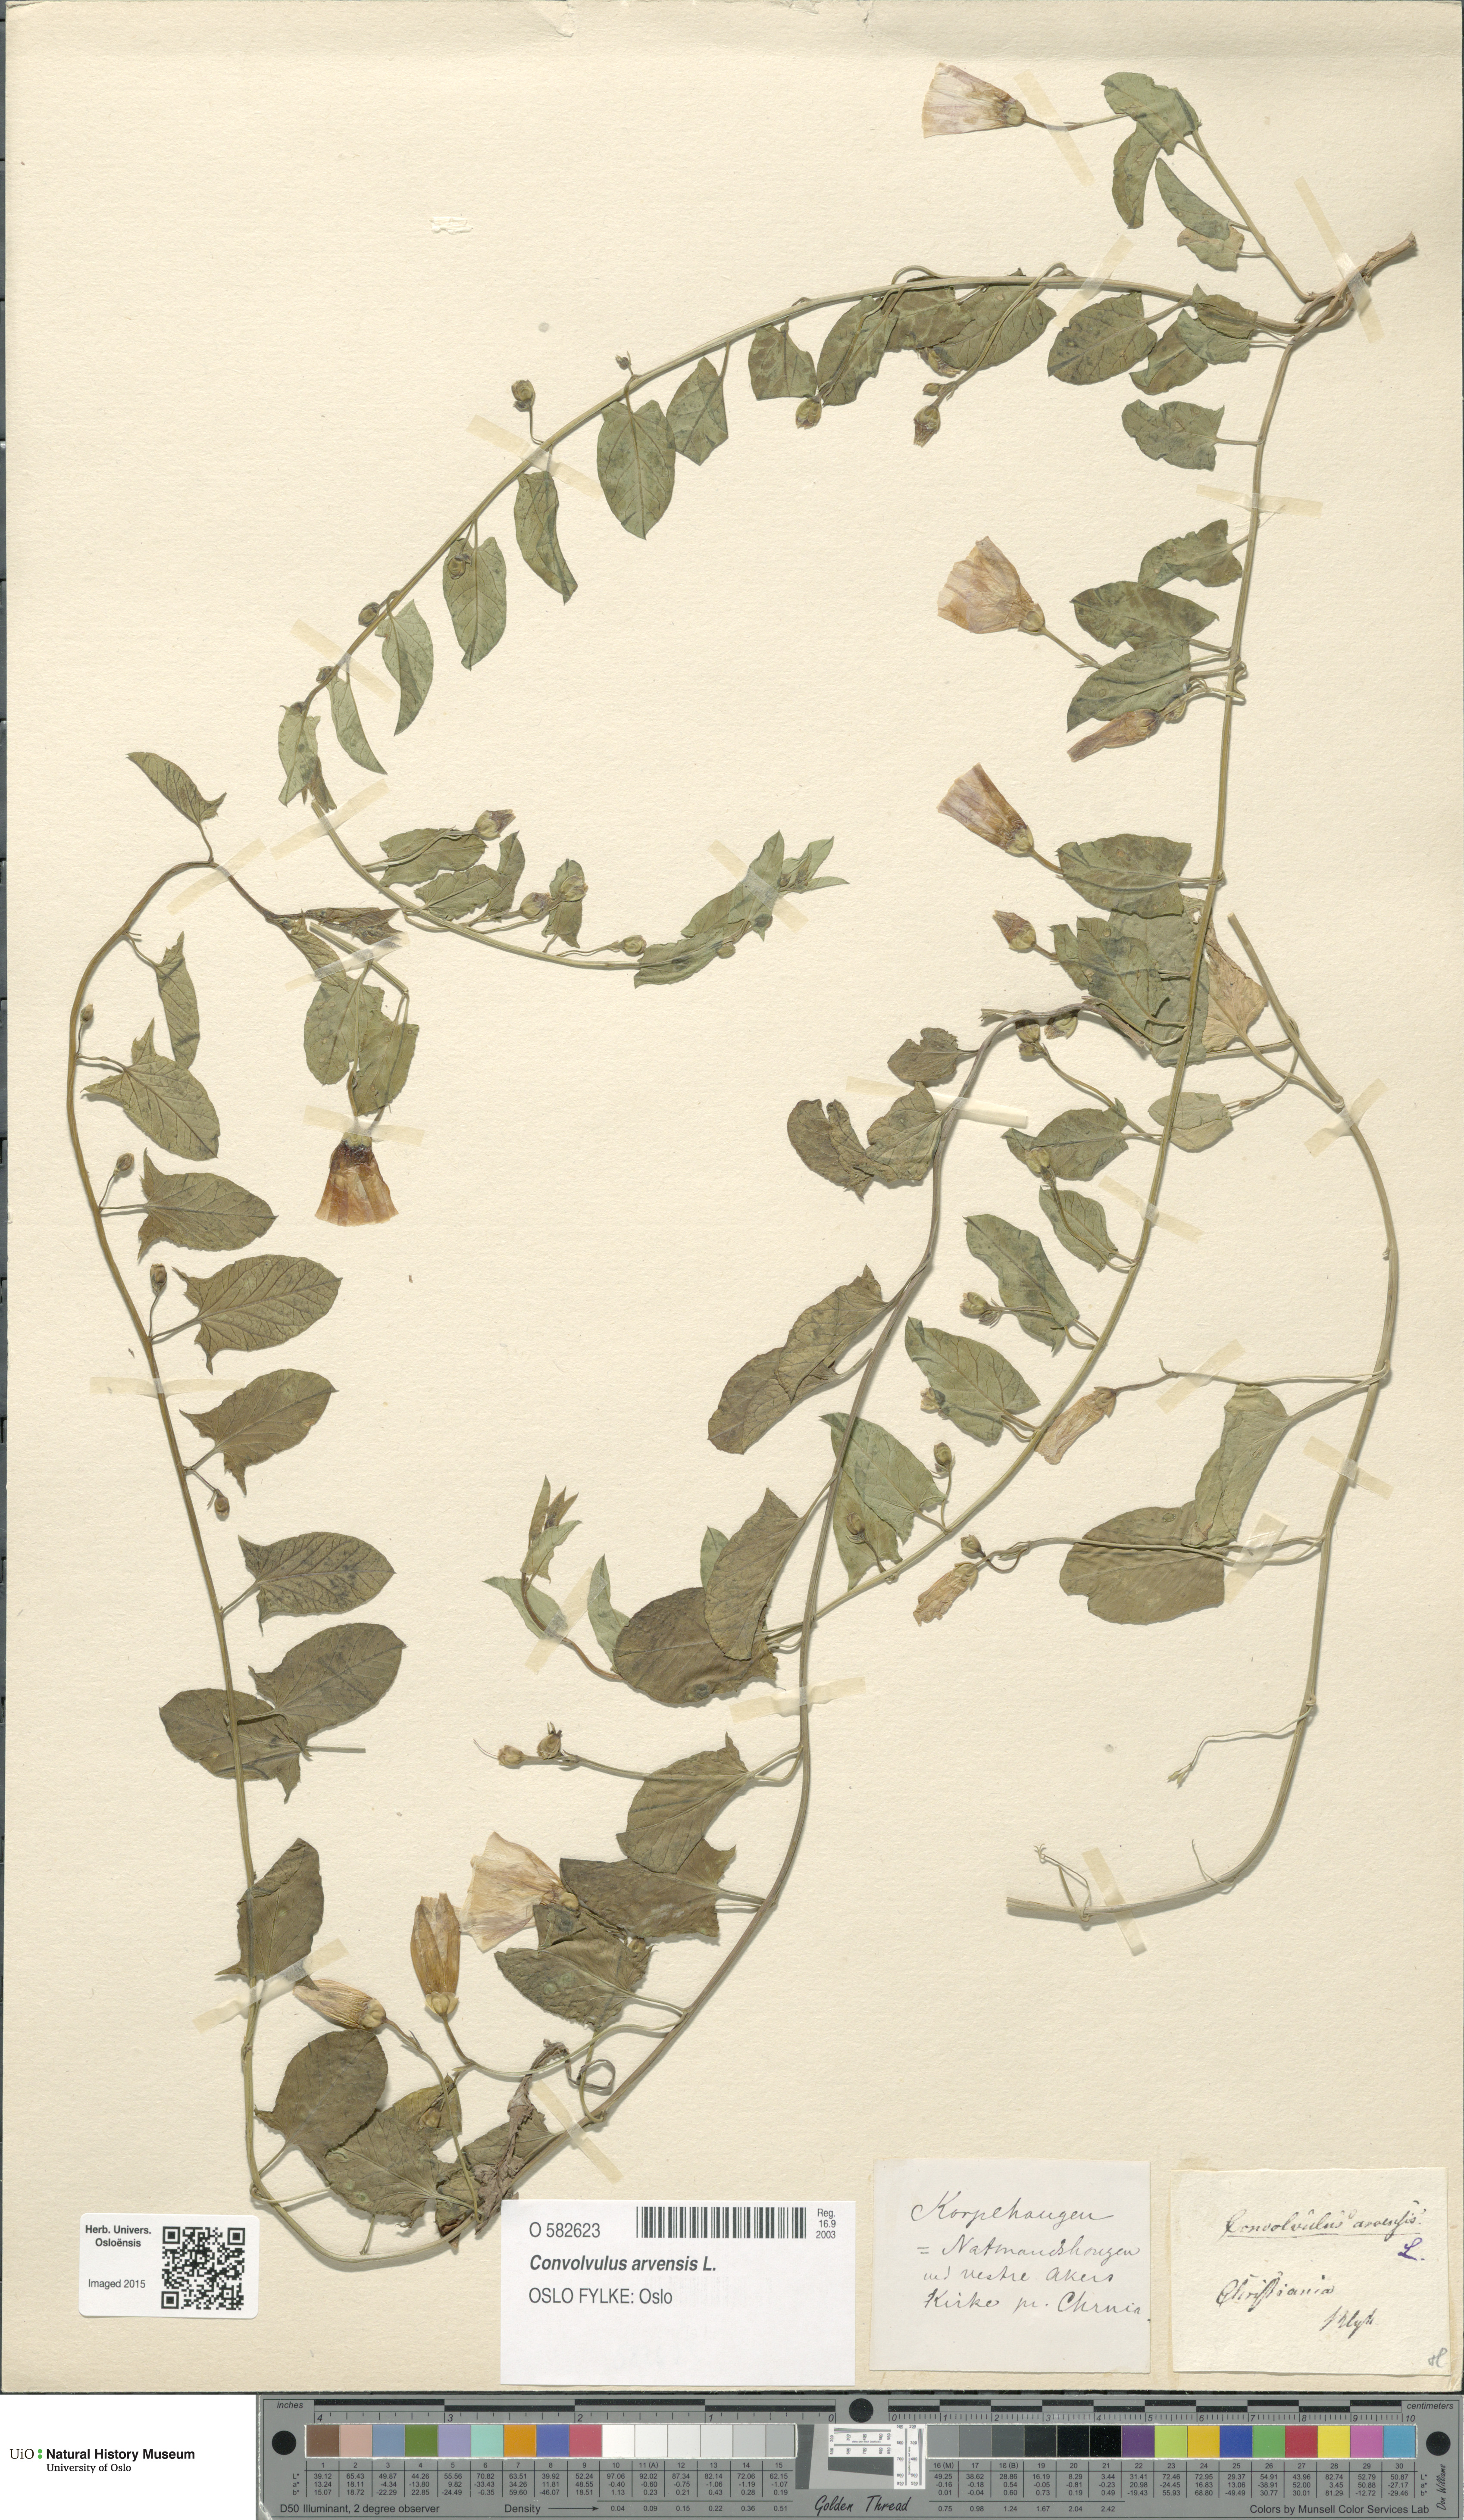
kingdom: Plantae
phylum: Tracheophyta
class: Magnoliopsida
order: Solanales
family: Convolvulaceae
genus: Convolvulus
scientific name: Convolvulus arvensis
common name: Field bindweed
